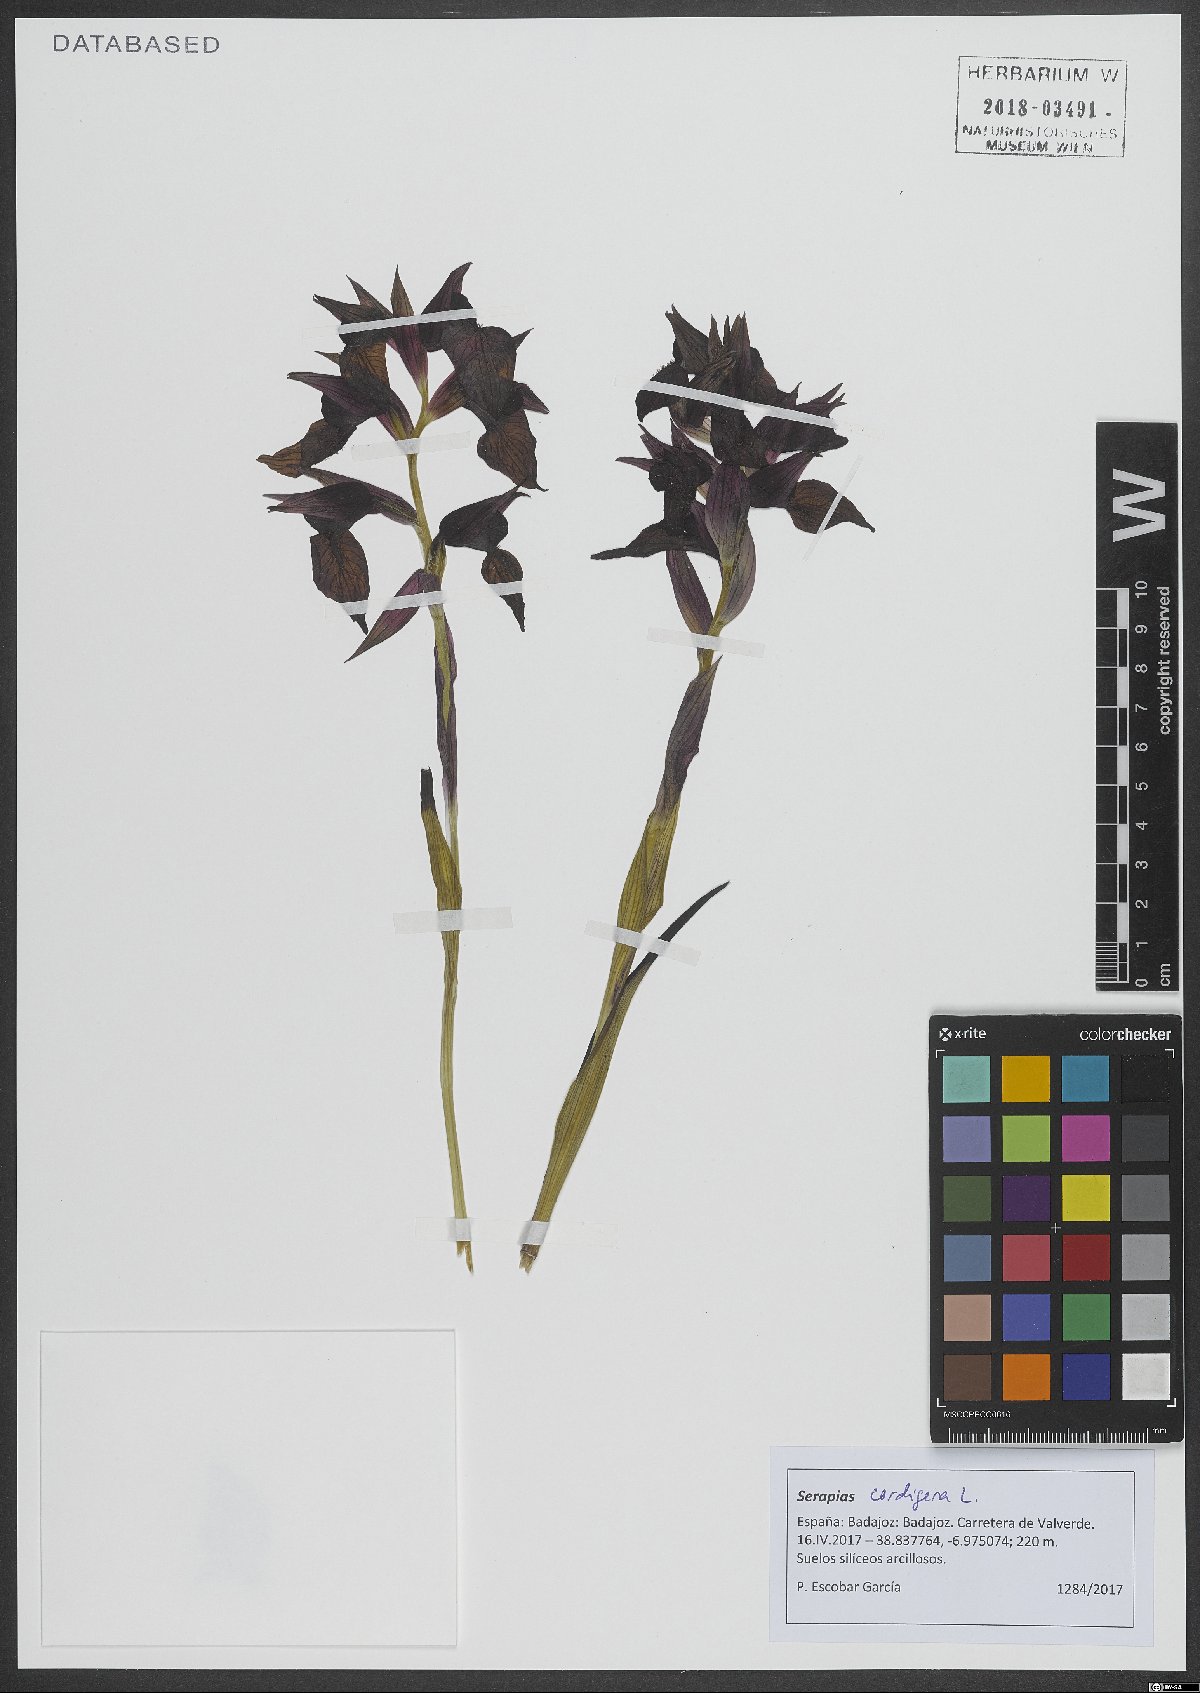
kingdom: Plantae
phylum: Tracheophyta
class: Liliopsida
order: Asparagales
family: Orchidaceae
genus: Serapias
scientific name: Serapias cordigera
